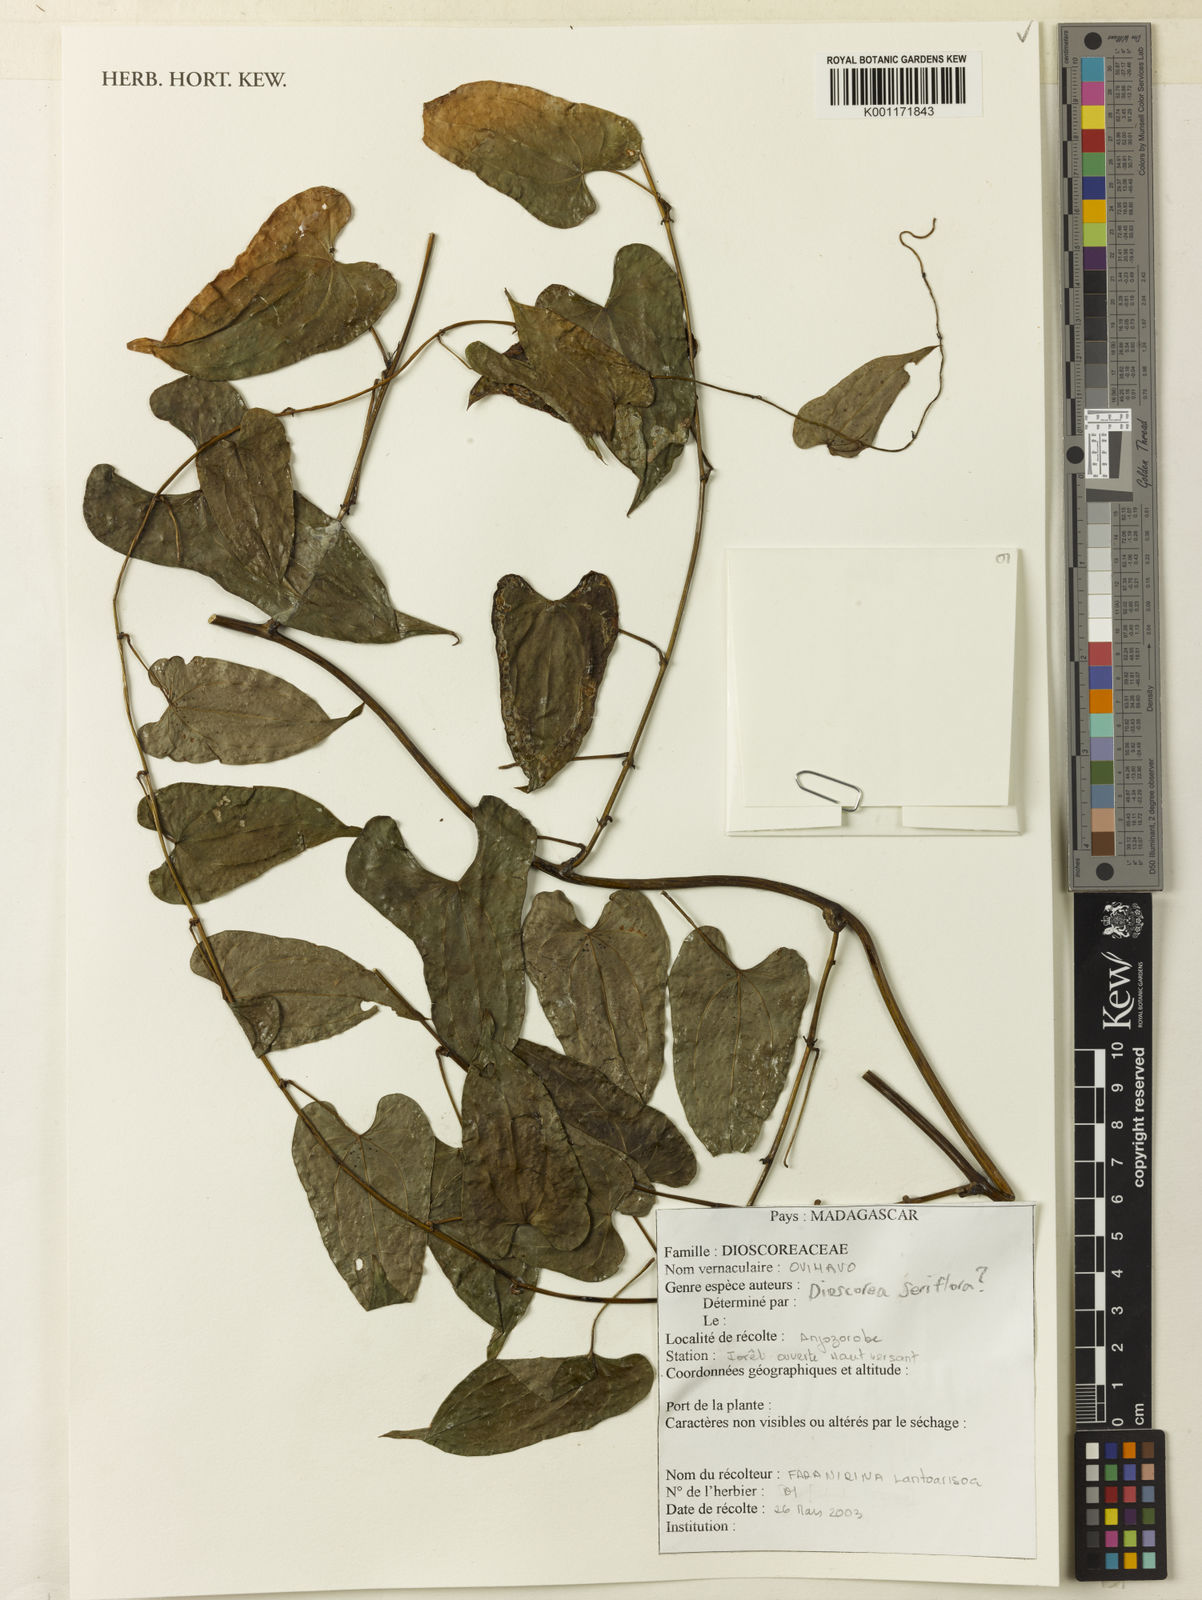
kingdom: Plantae
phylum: Tracheophyta
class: Liliopsida
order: Dioscoreales
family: Dioscoreaceae
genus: Dioscorea
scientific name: Dioscorea seriflora
